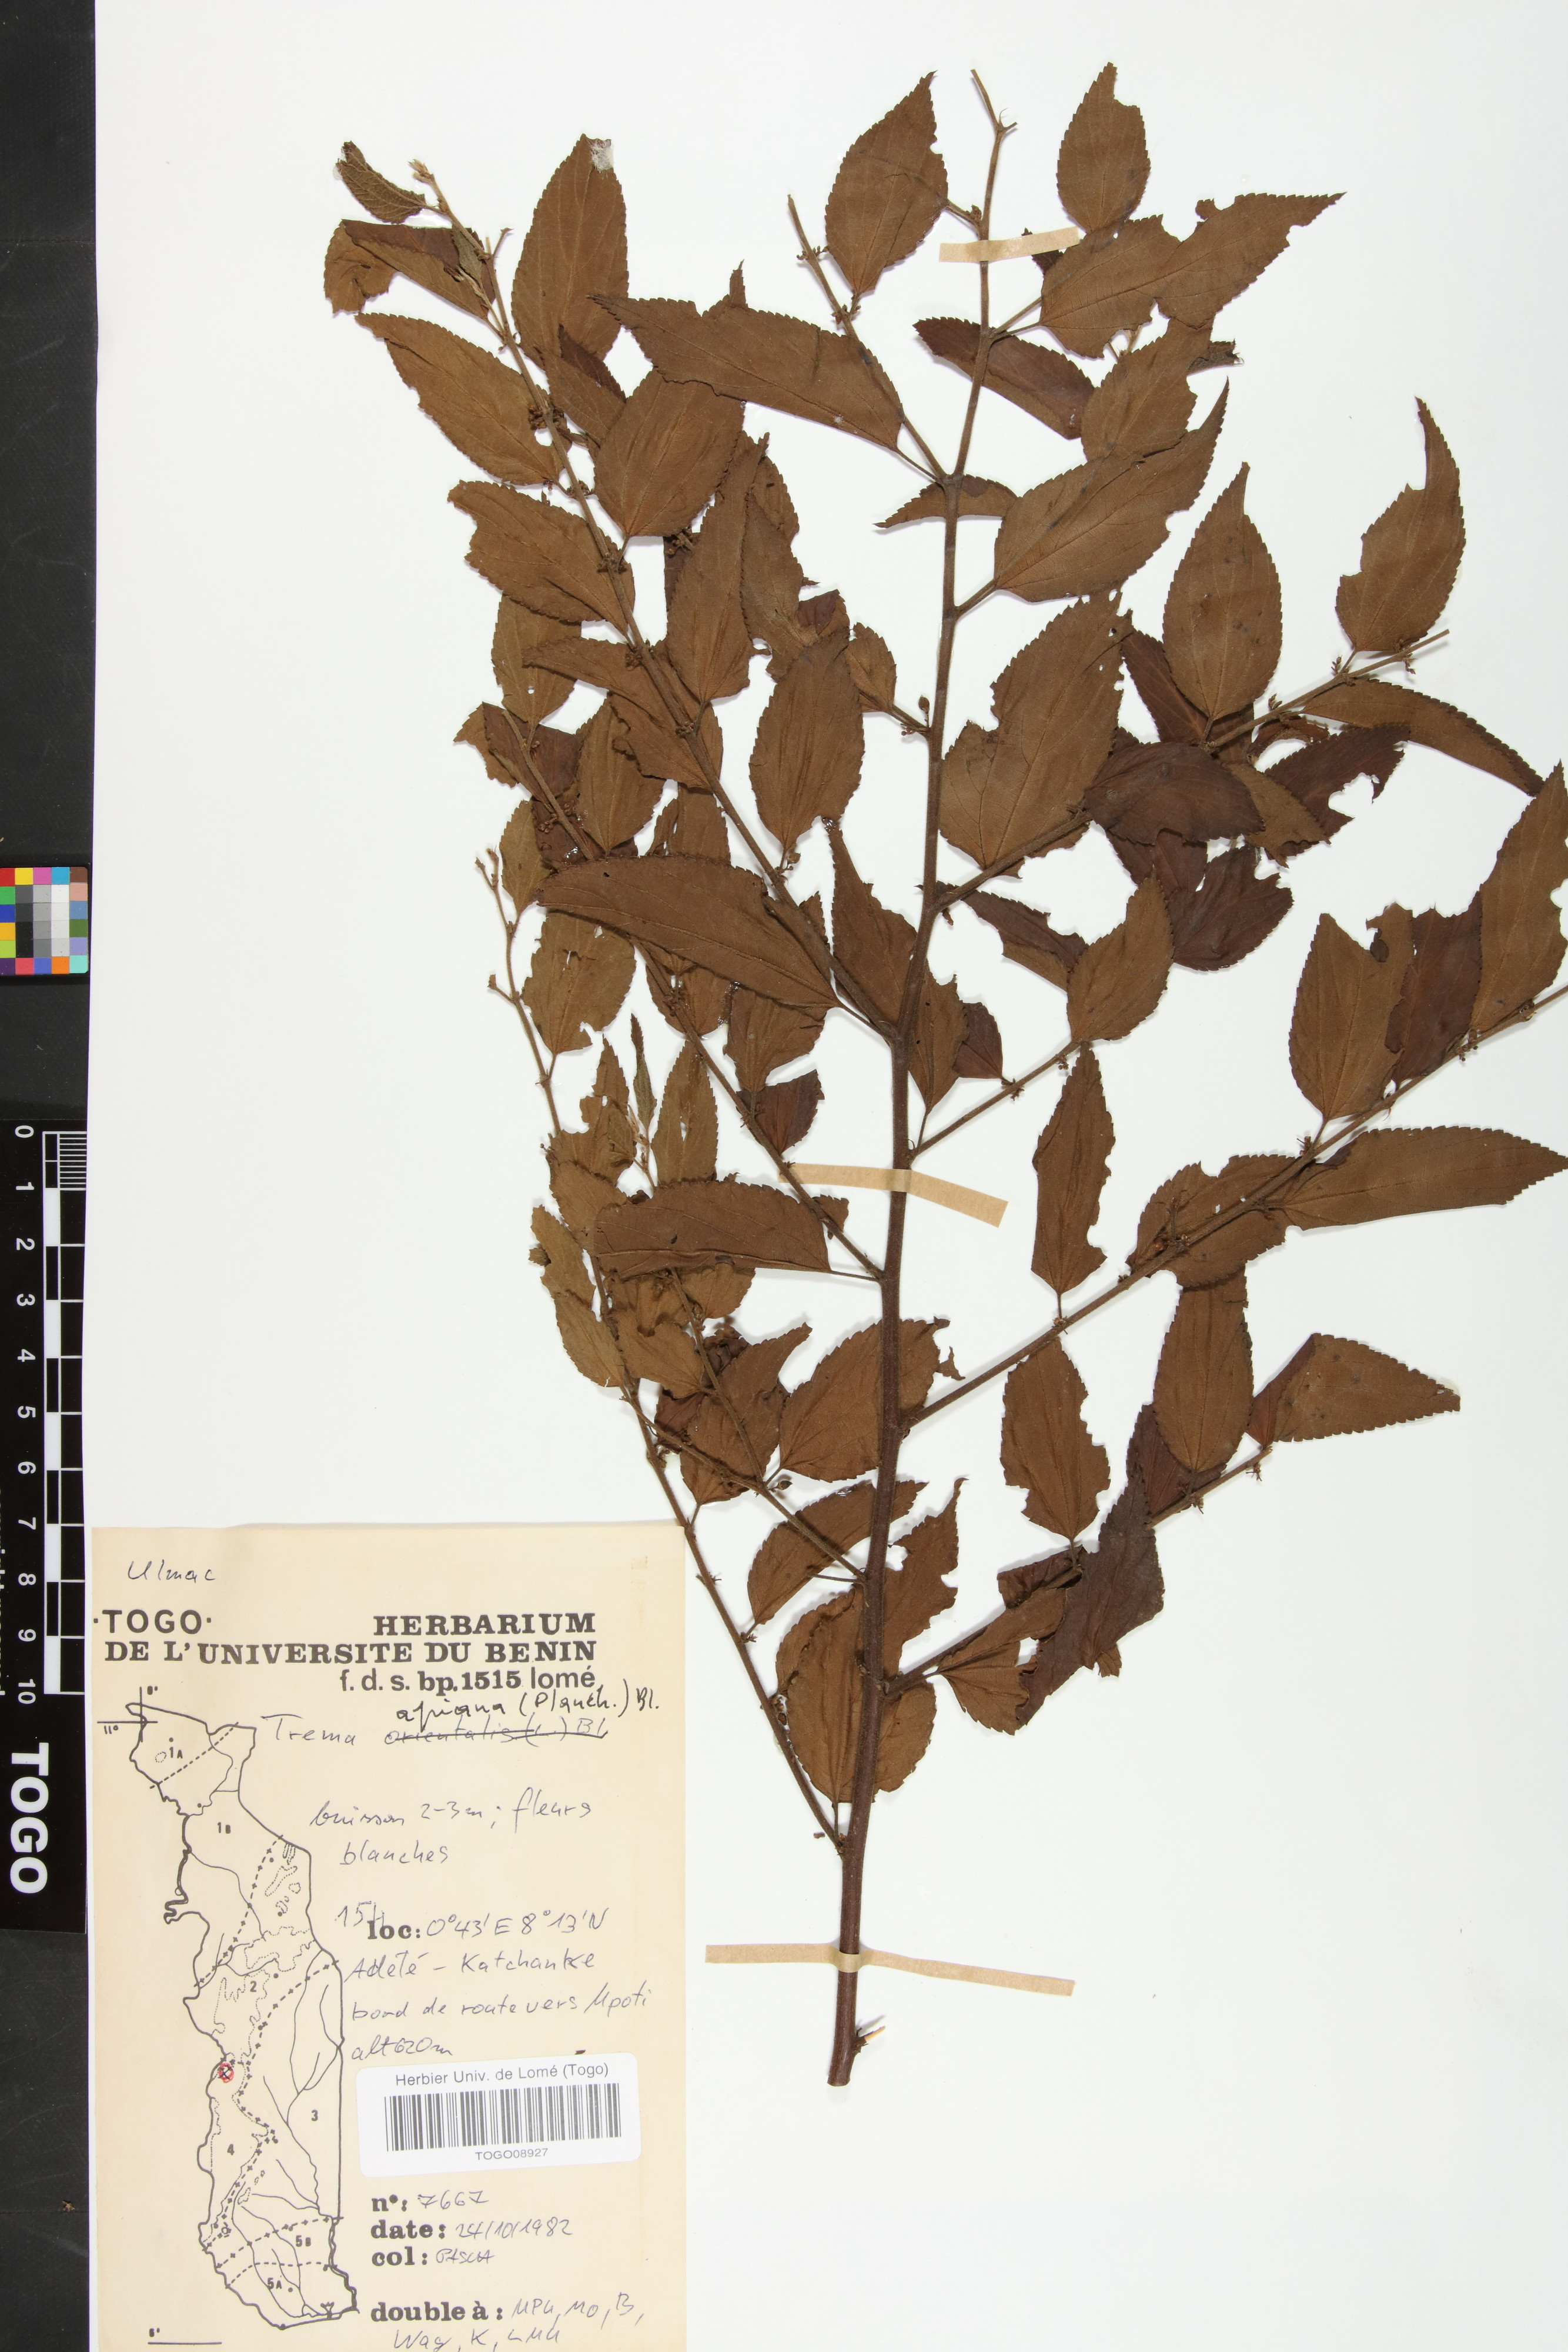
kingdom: Plantae
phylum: Tracheophyta
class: Magnoliopsida
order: Rosales
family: Cannabaceae
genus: Trema
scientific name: Trema orientale
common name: Indian charcoal tree
